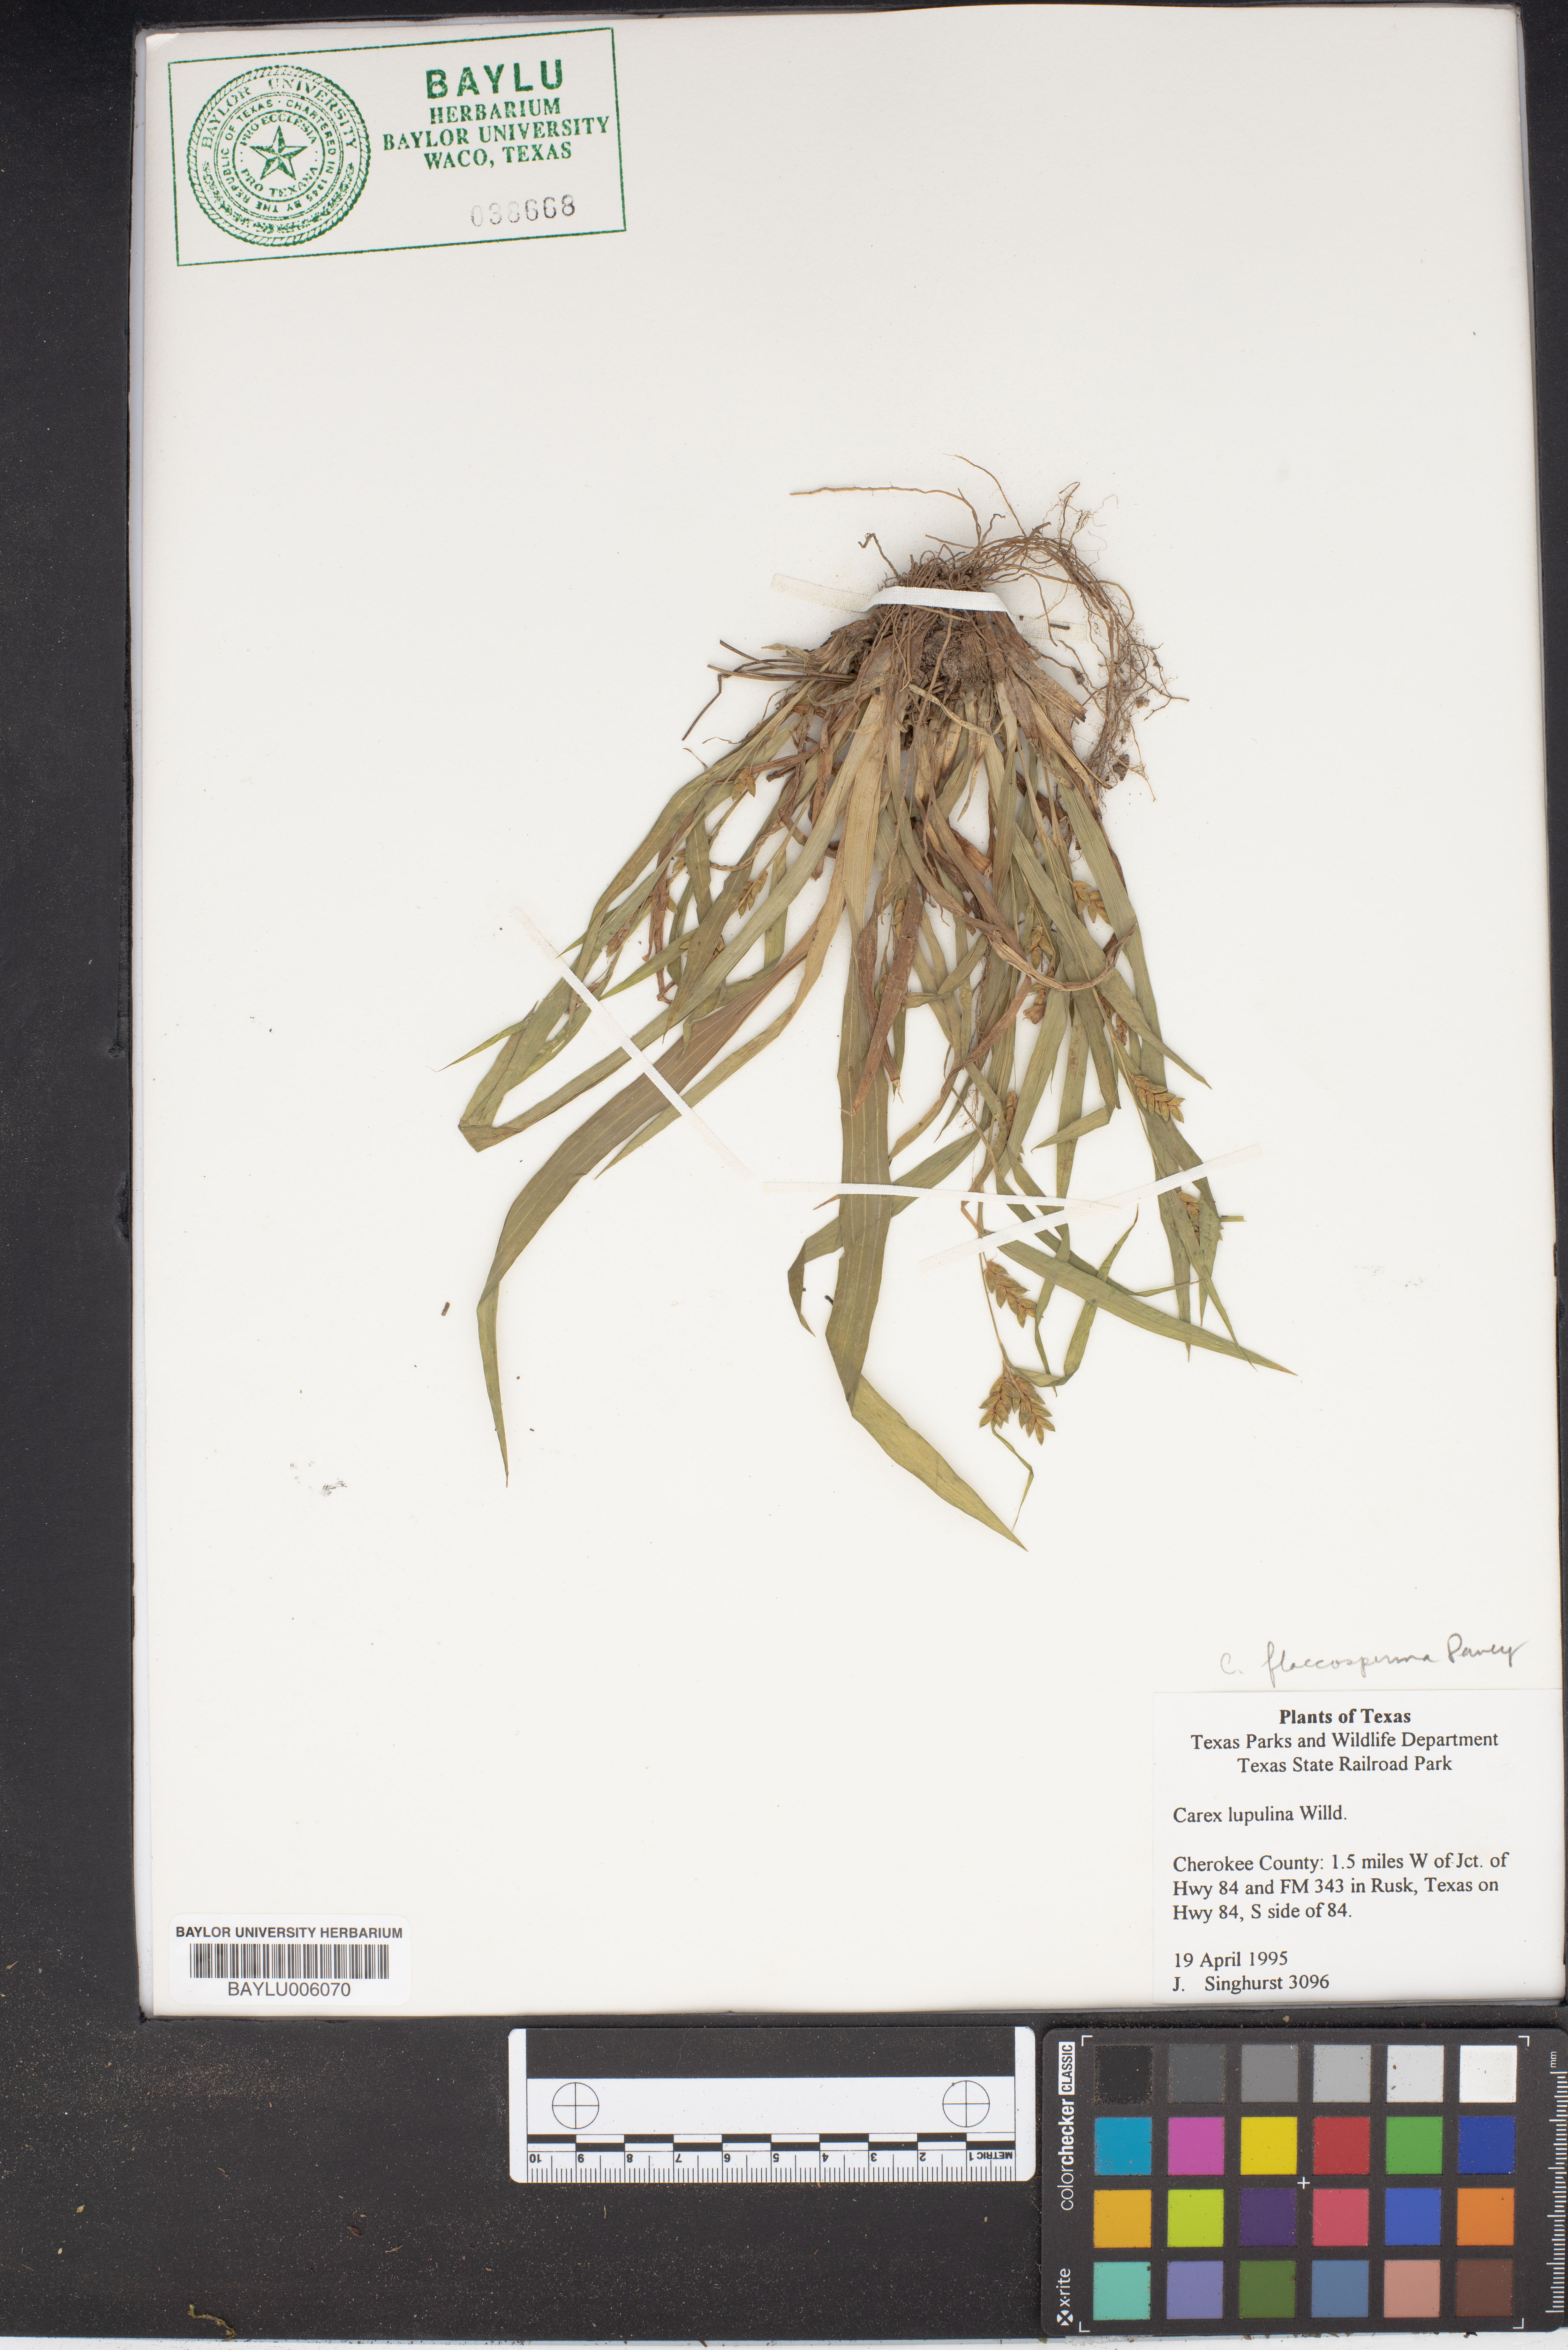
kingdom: Plantae
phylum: Tracheophyta
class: Liliopsida
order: Poales
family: Cyperaceae
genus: Carex
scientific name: Carex flaccosperma
